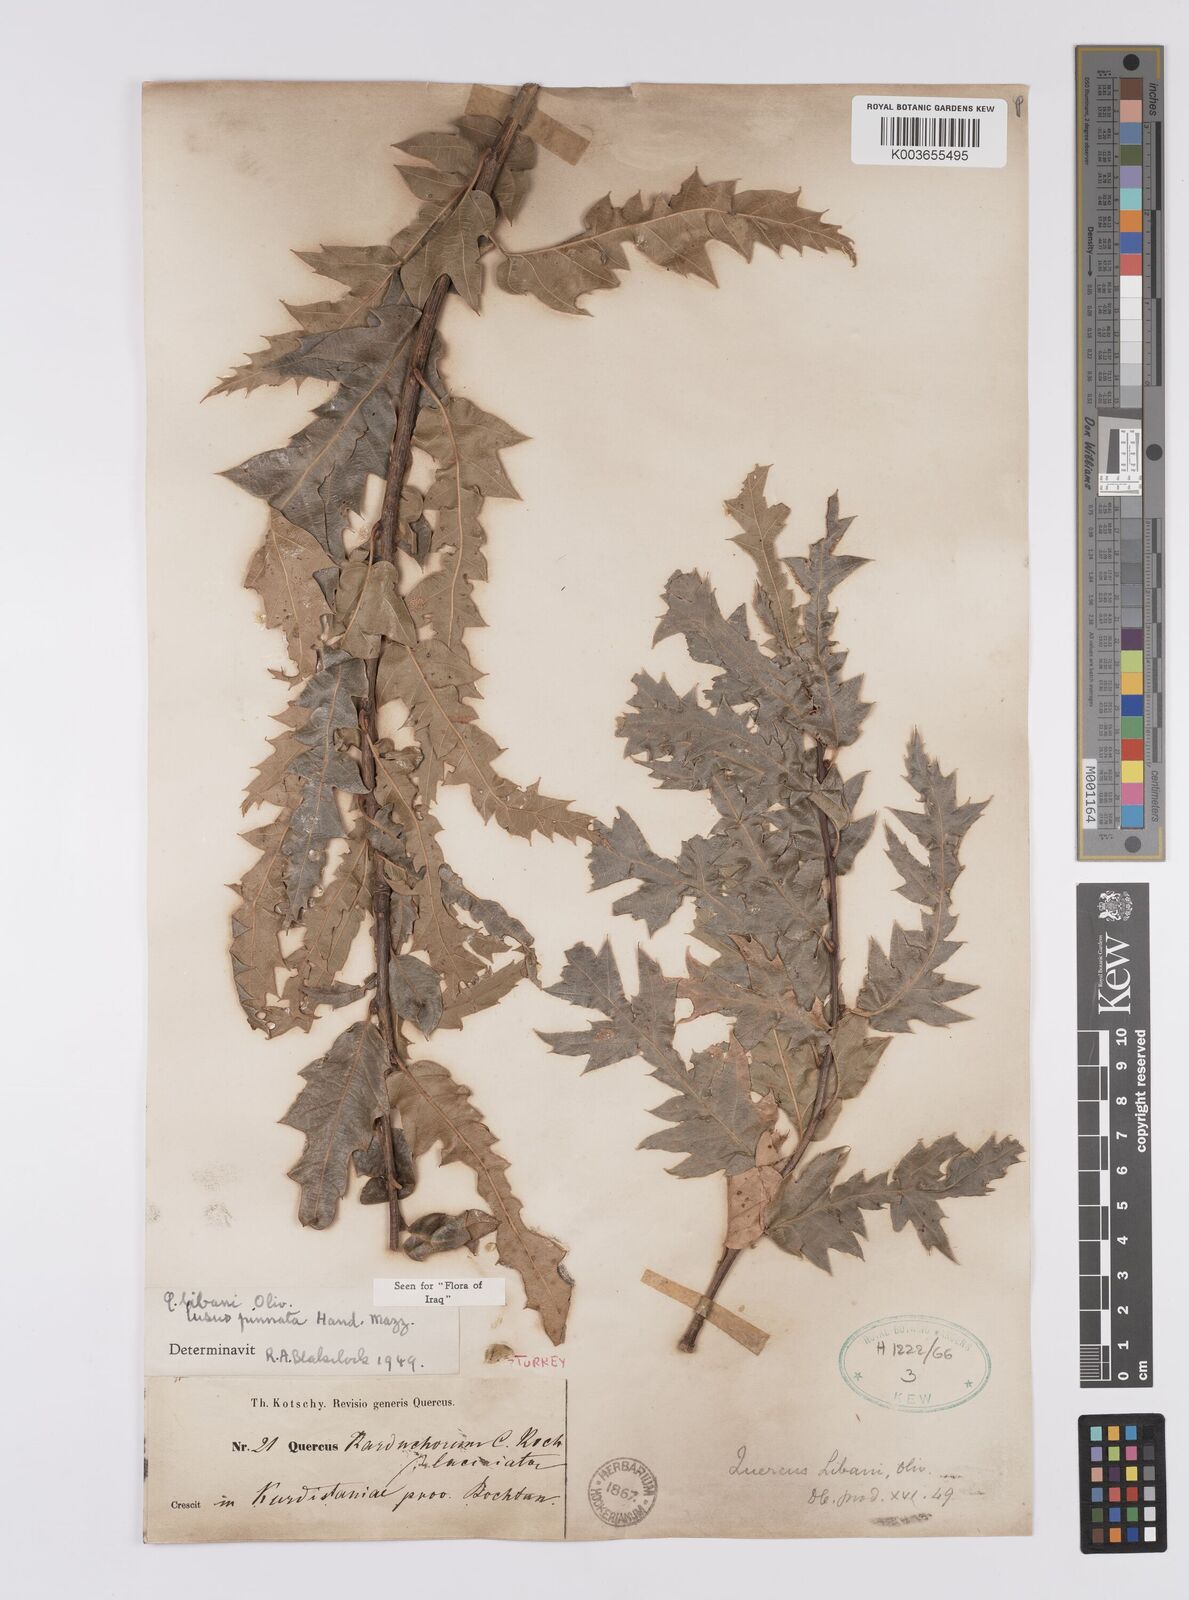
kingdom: Plantae
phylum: Tracheophyta
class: Magnoliopsida
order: Fagales
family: Fagaceae
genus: Quercus
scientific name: Quercus libani
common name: Lebanon oak
